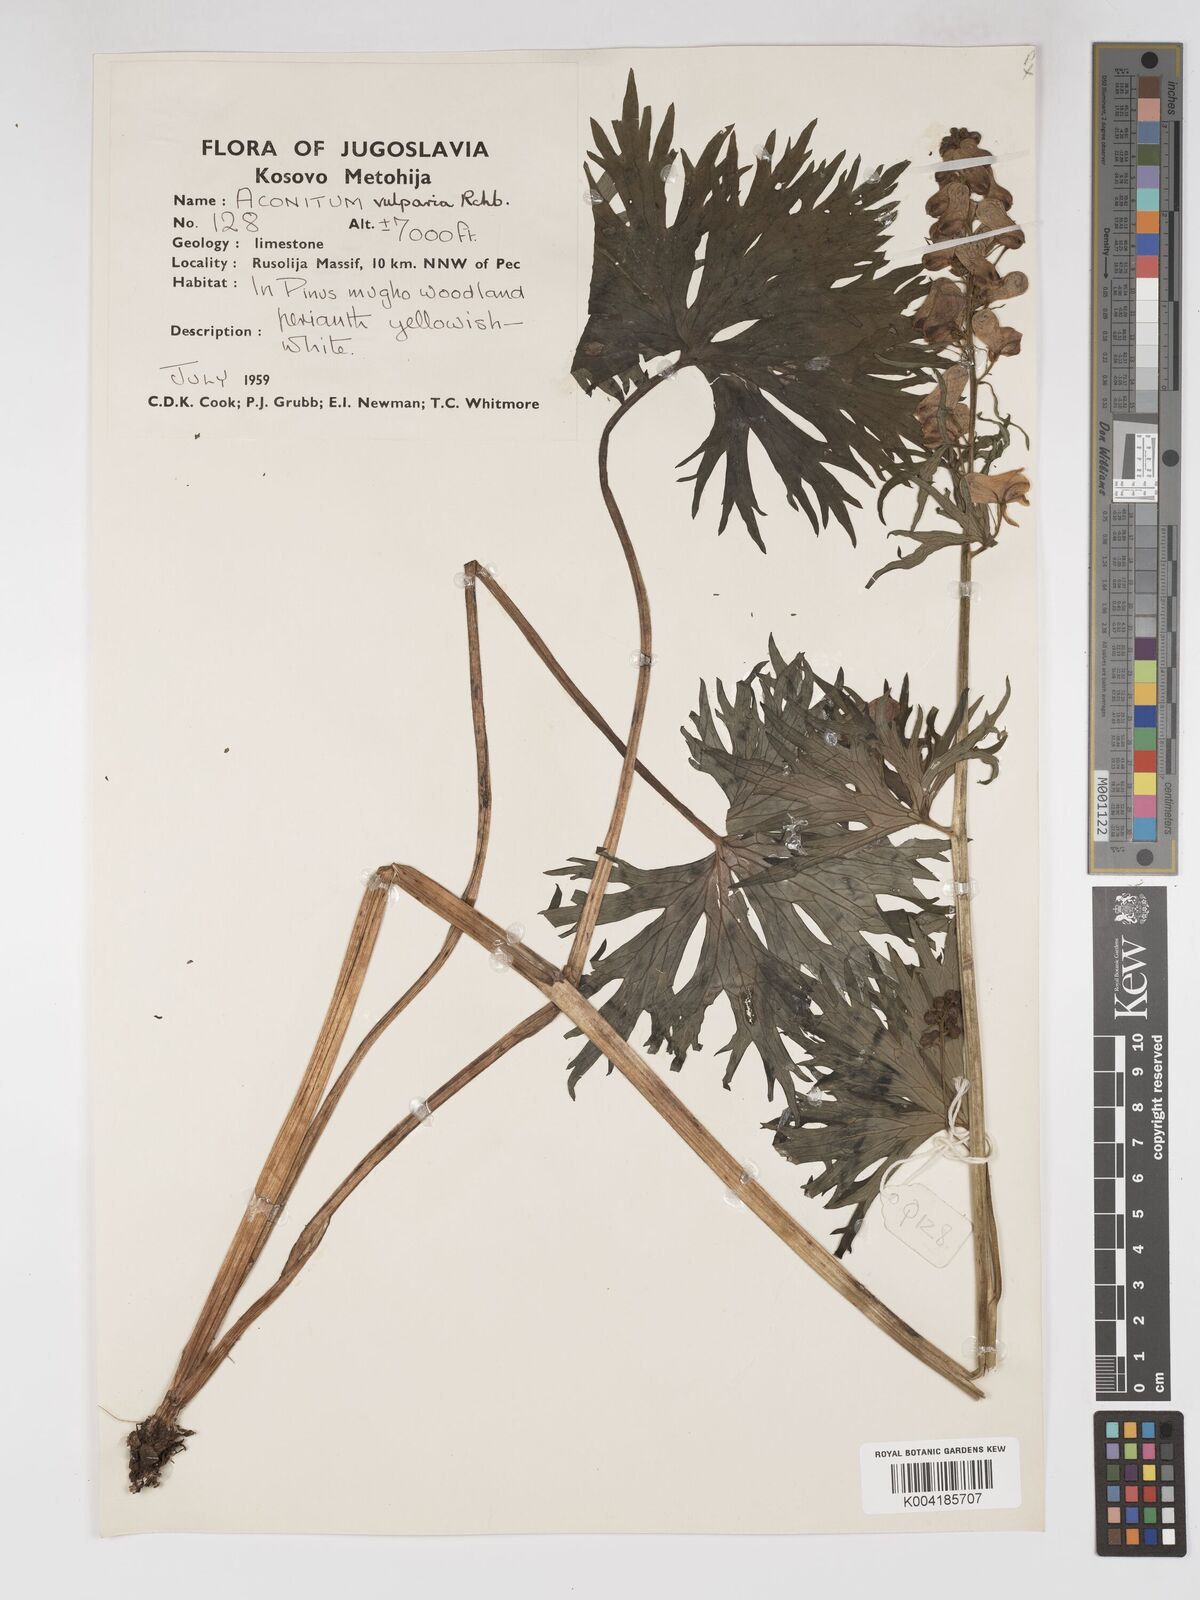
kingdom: Plantae
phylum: Tracheophyta
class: Magnoliopsida
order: Ranunculales
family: Ranunculaceae
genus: Aconitum
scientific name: Aconitum lycoctonum
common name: Wolf's-bane
